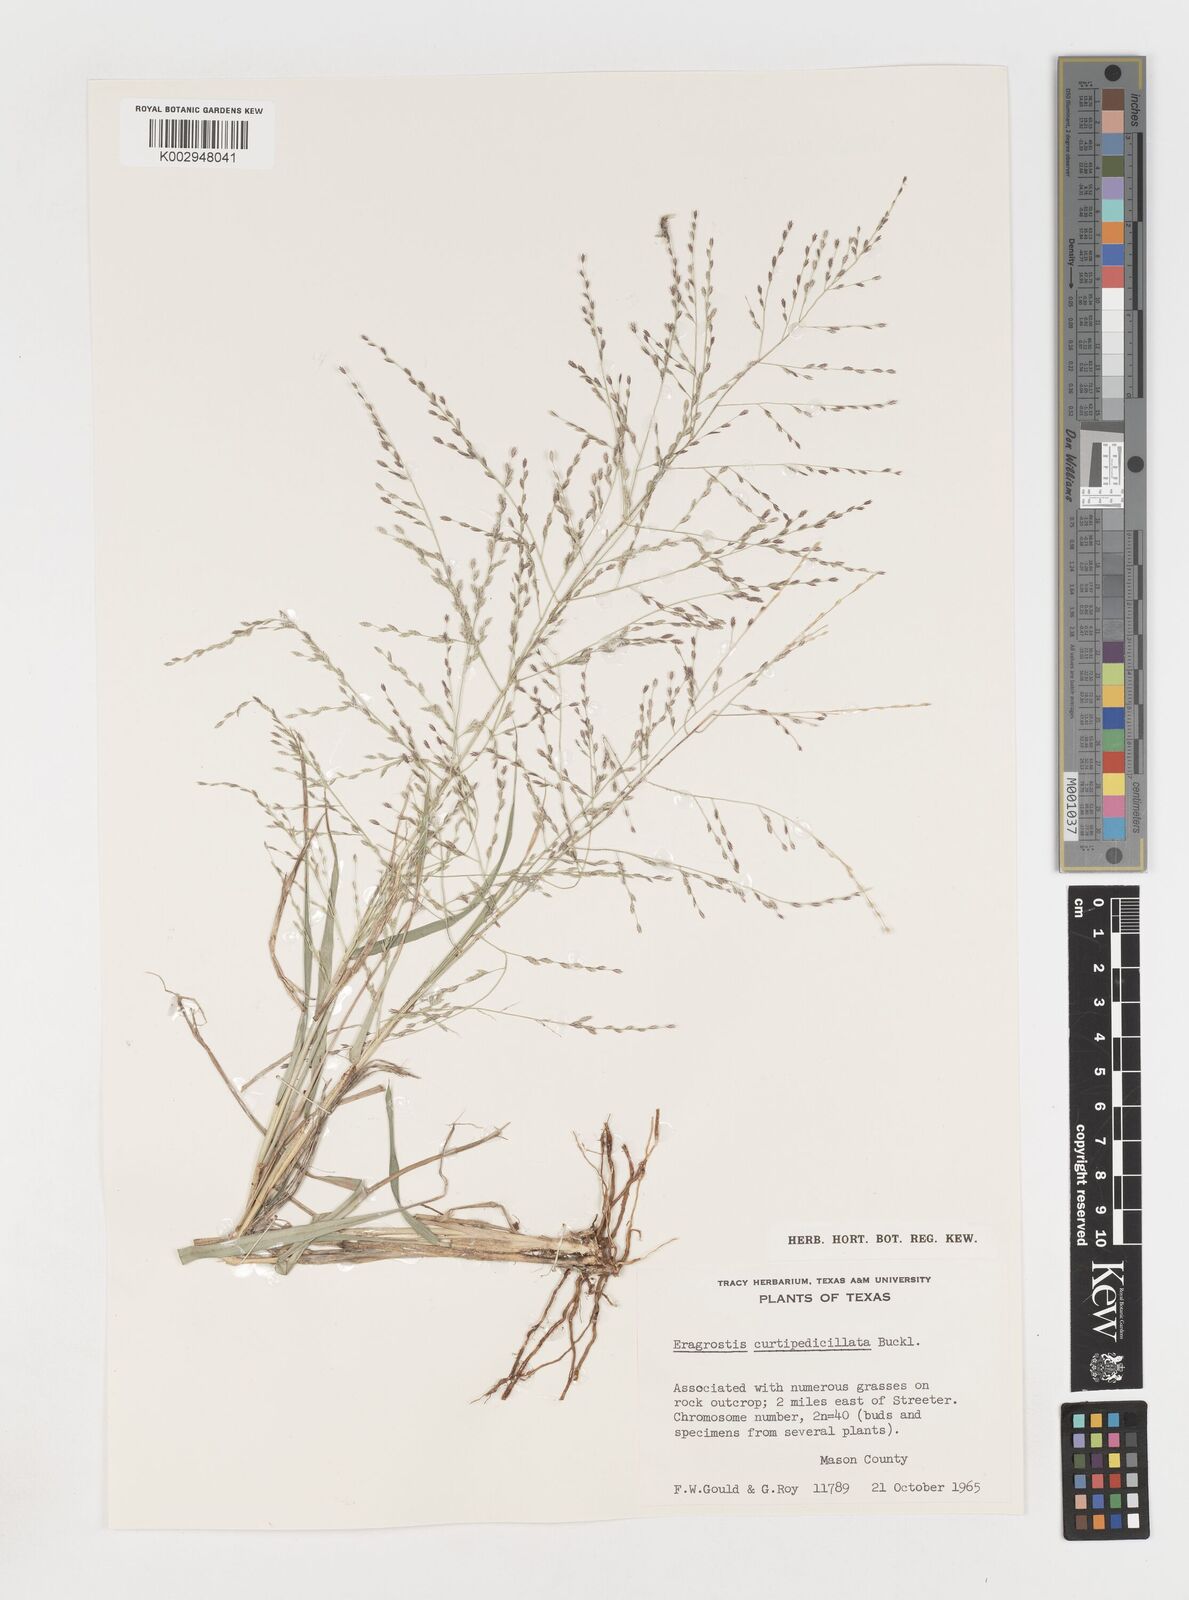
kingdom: Plantae
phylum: Tracheophyta
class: Liliopsida
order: Poales
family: Poaceae
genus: Eragrostis
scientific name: Eragrostis curtipedicellata
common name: Gummy love grass
